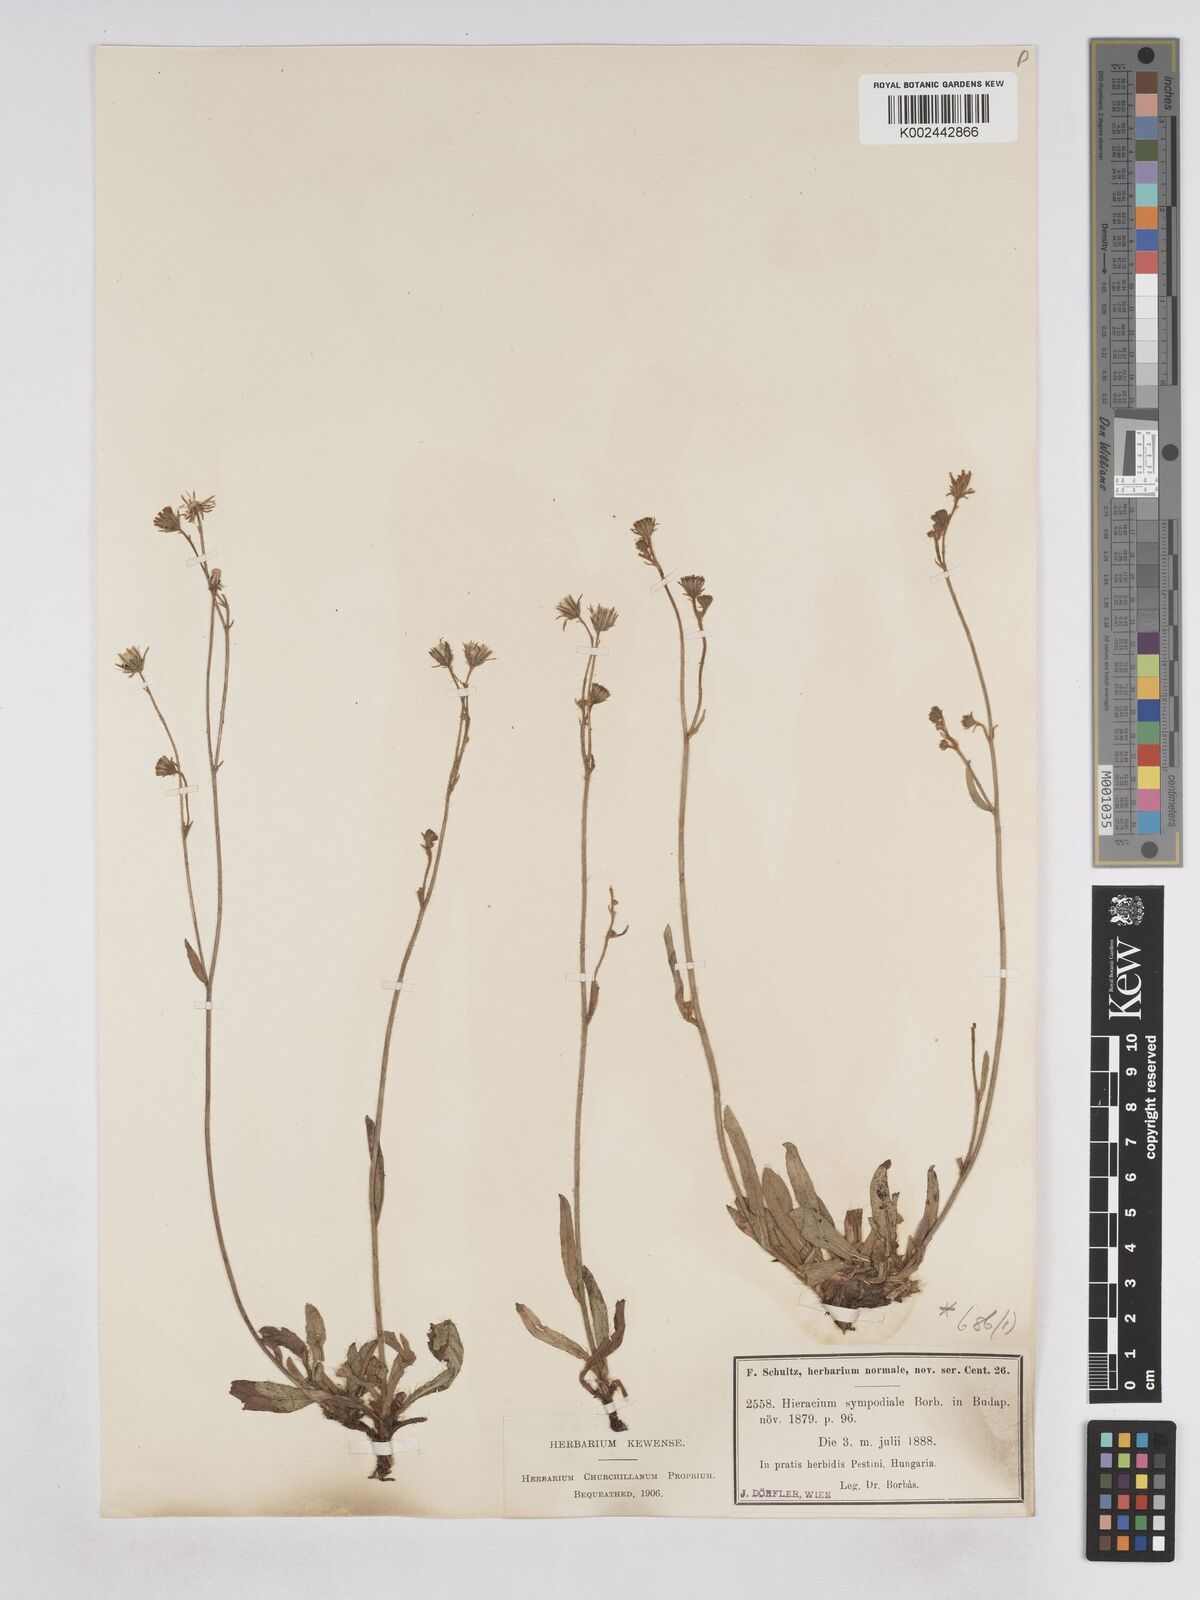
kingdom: Plantae
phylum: Tracheophyta
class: Magnoliopsida
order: Asterales
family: Asteraceae
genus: Pilosella
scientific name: Pilosella bifurca
